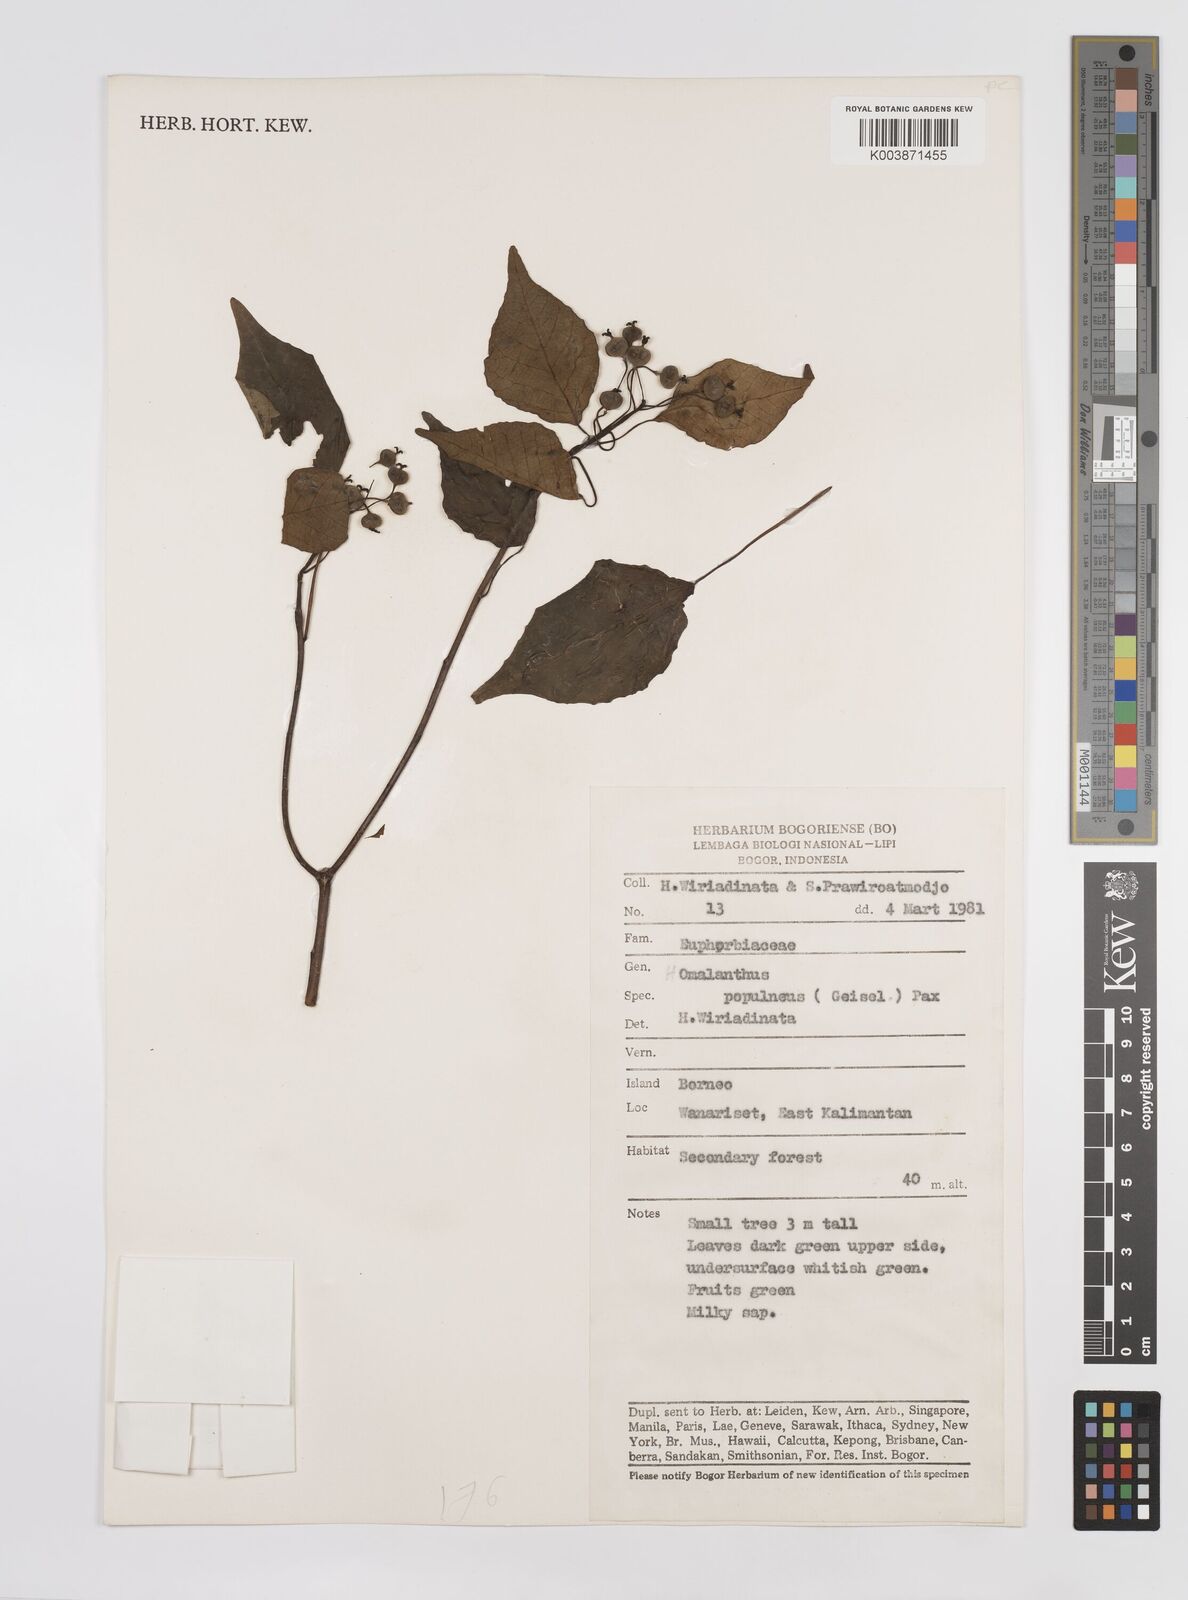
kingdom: Plantae
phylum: Tracheophyta
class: Magnoliopsida
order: Malpighiales
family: Euphorbiaceae
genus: Homalanthus
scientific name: Homalanthus populneus
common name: Spurge
